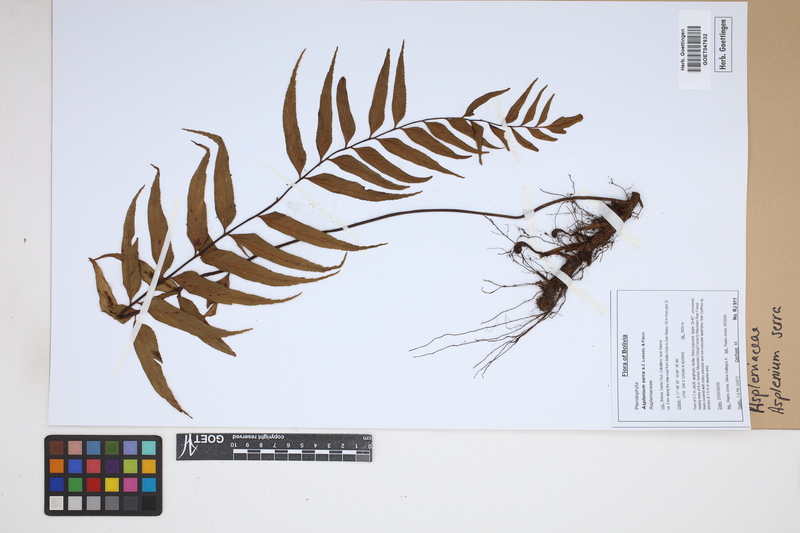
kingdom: Plantae
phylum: Tracheophyta
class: Polypodiopsida
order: Polypodiales
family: Aspleniaceae
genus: Asplenium
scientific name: Asplenium serra
